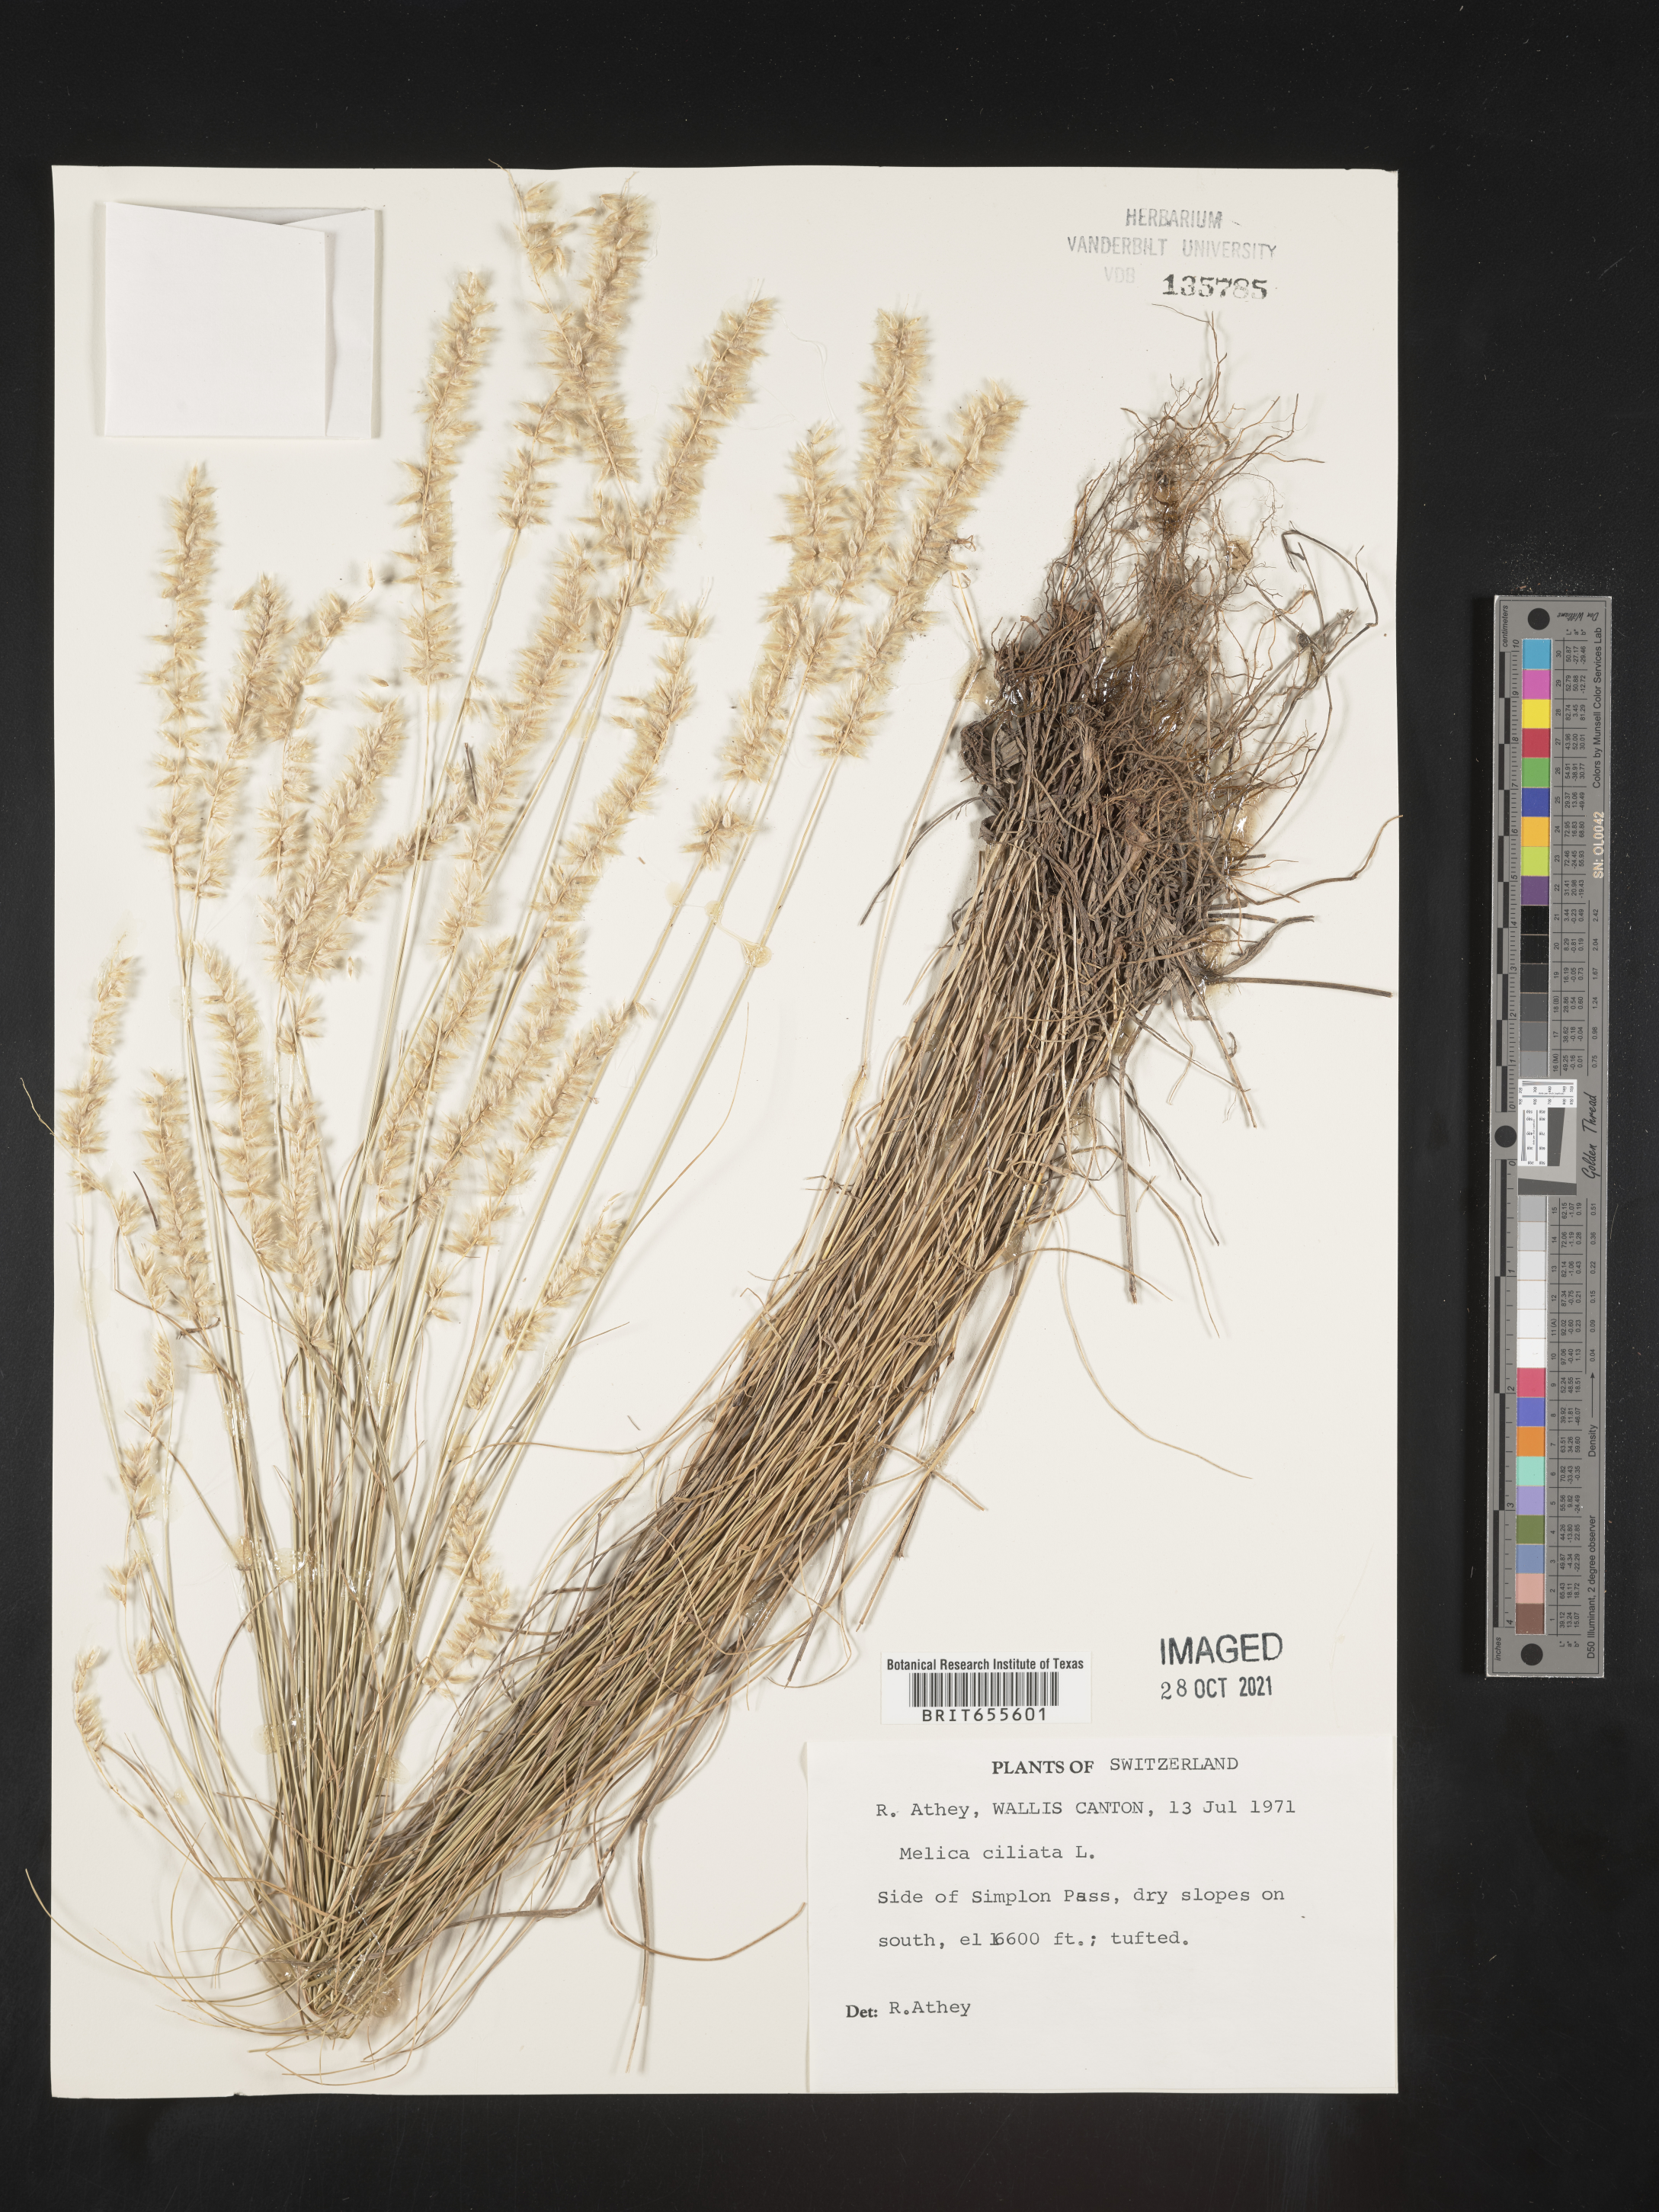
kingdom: Plantae
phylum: Tracheophyta
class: Liliopsida
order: Poales
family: Poaceae
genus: Melica
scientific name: Melica
